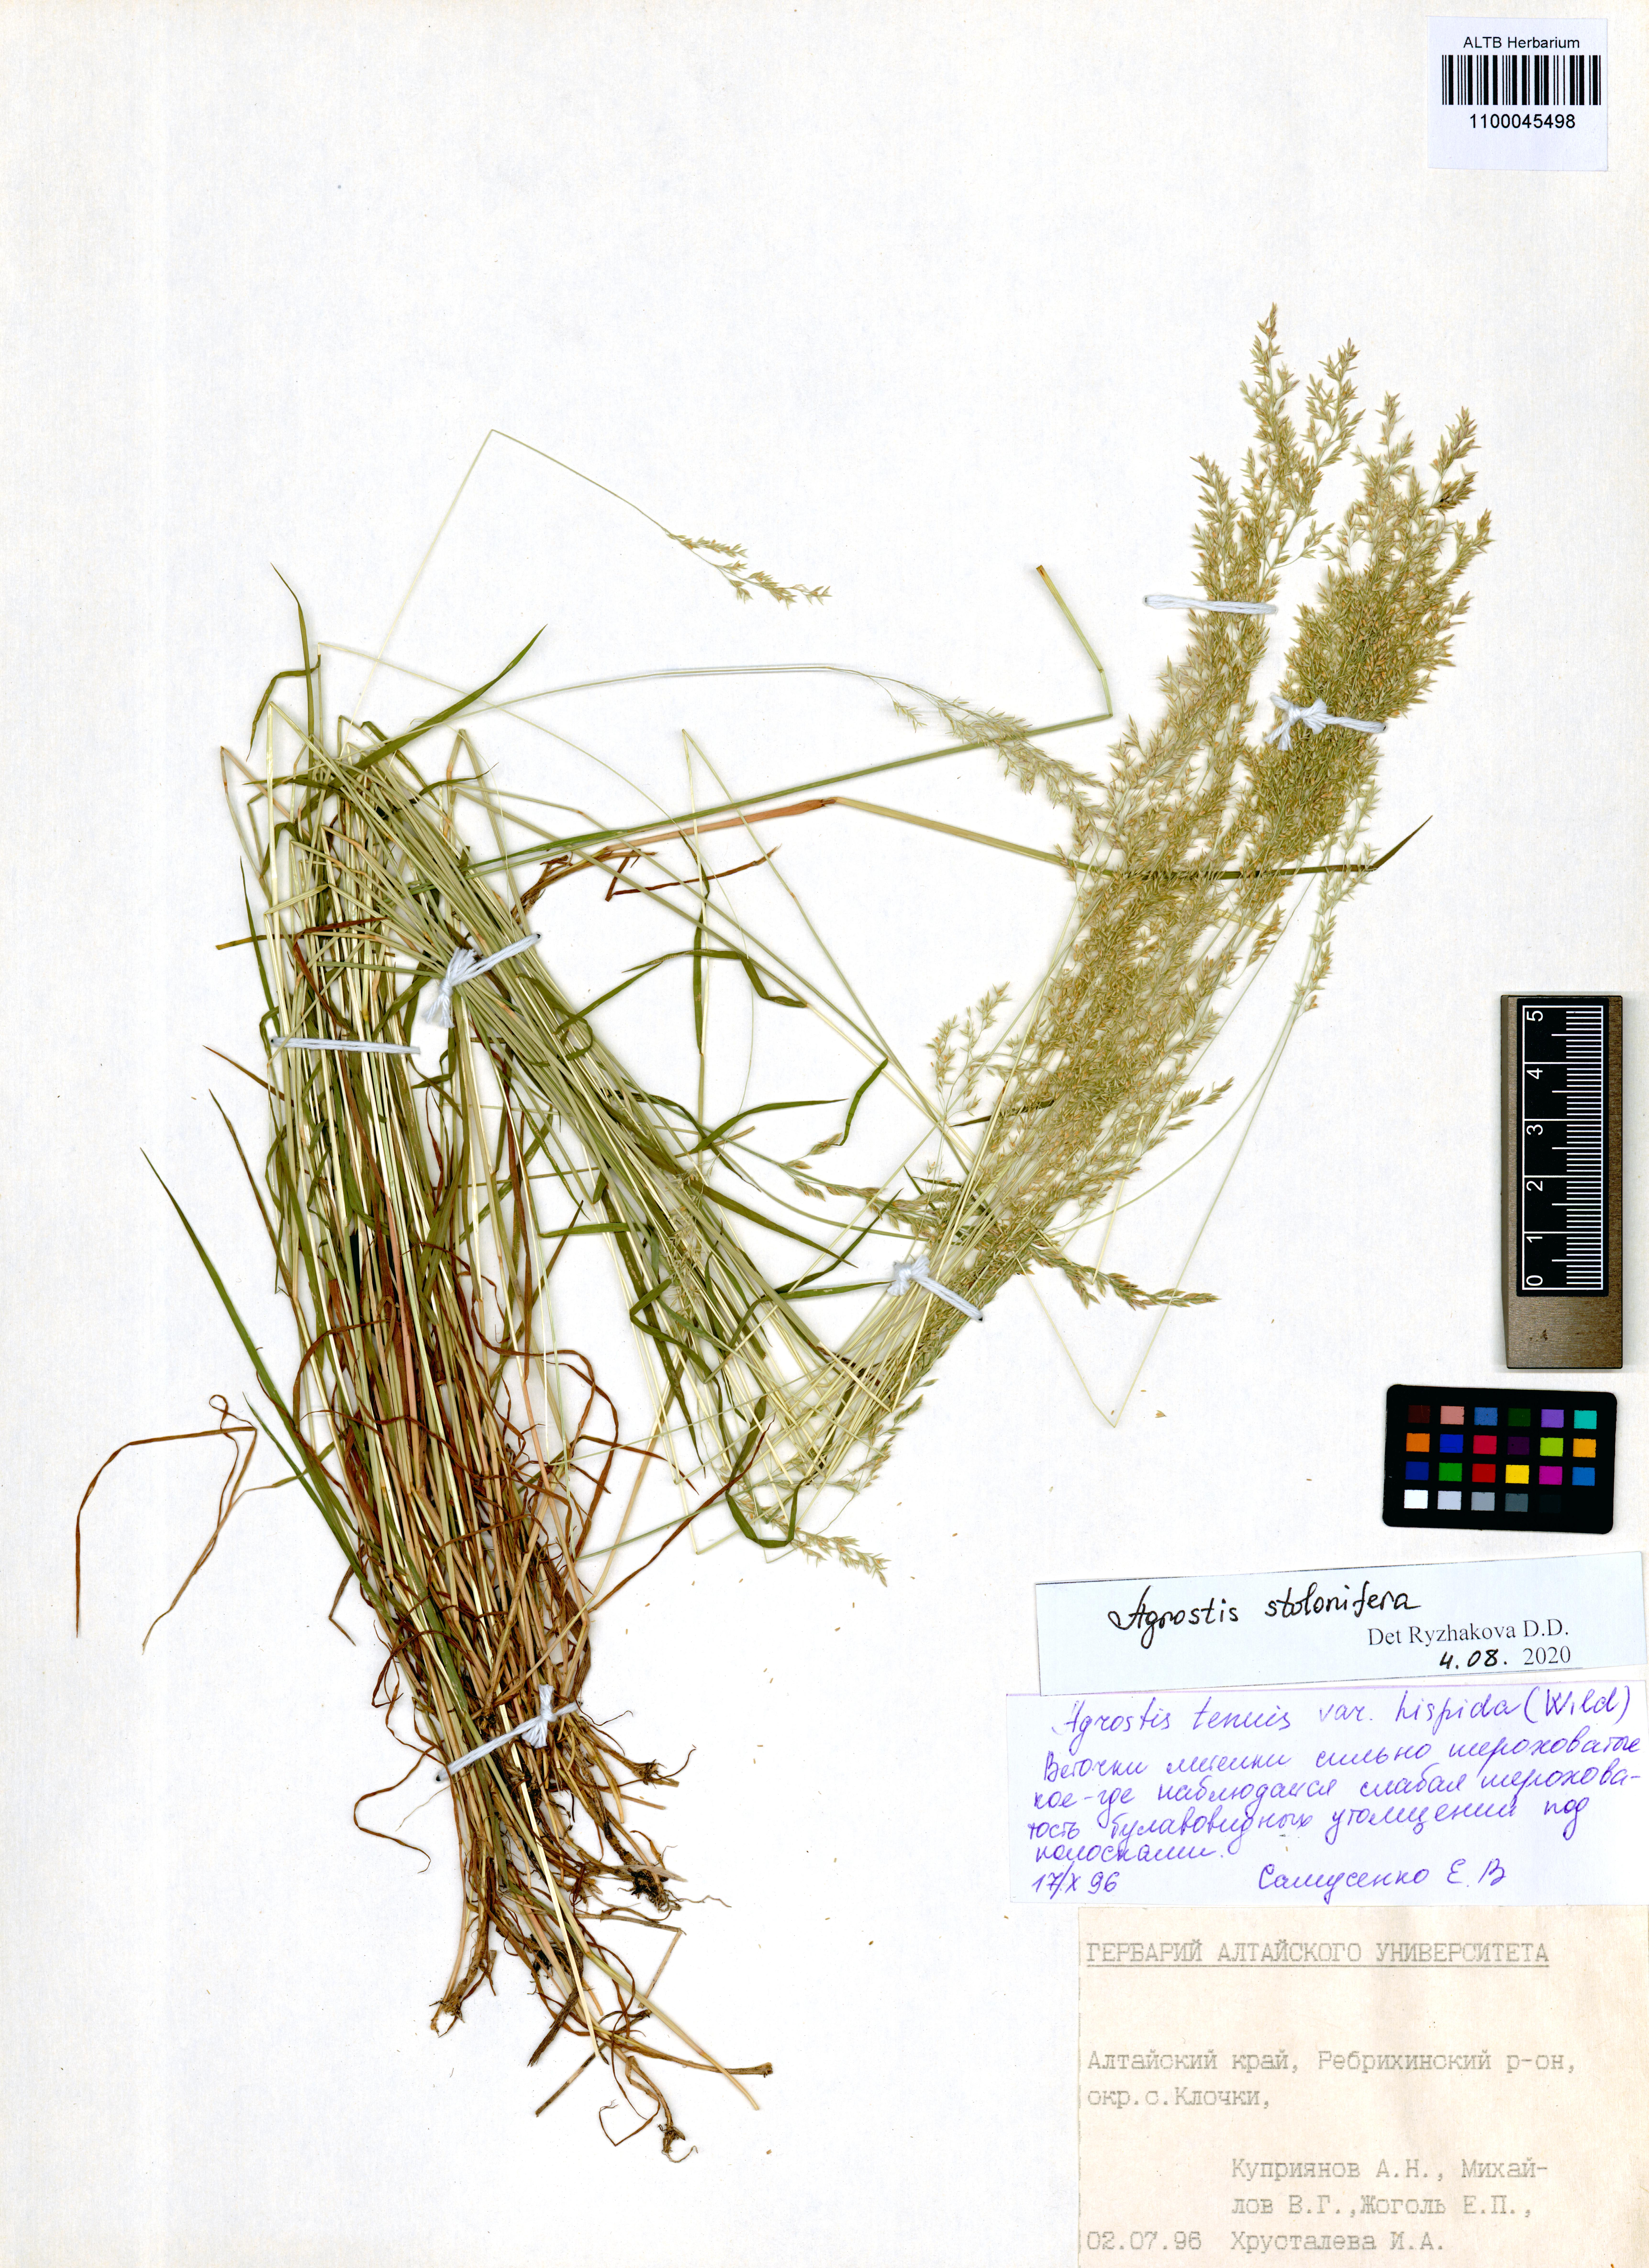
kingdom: Plantae
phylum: Tracheophyta
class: Liliopsida
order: Poales
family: Poaceae
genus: Agrostis
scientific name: Agrostis stolonifera
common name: Creeping bentgrass
